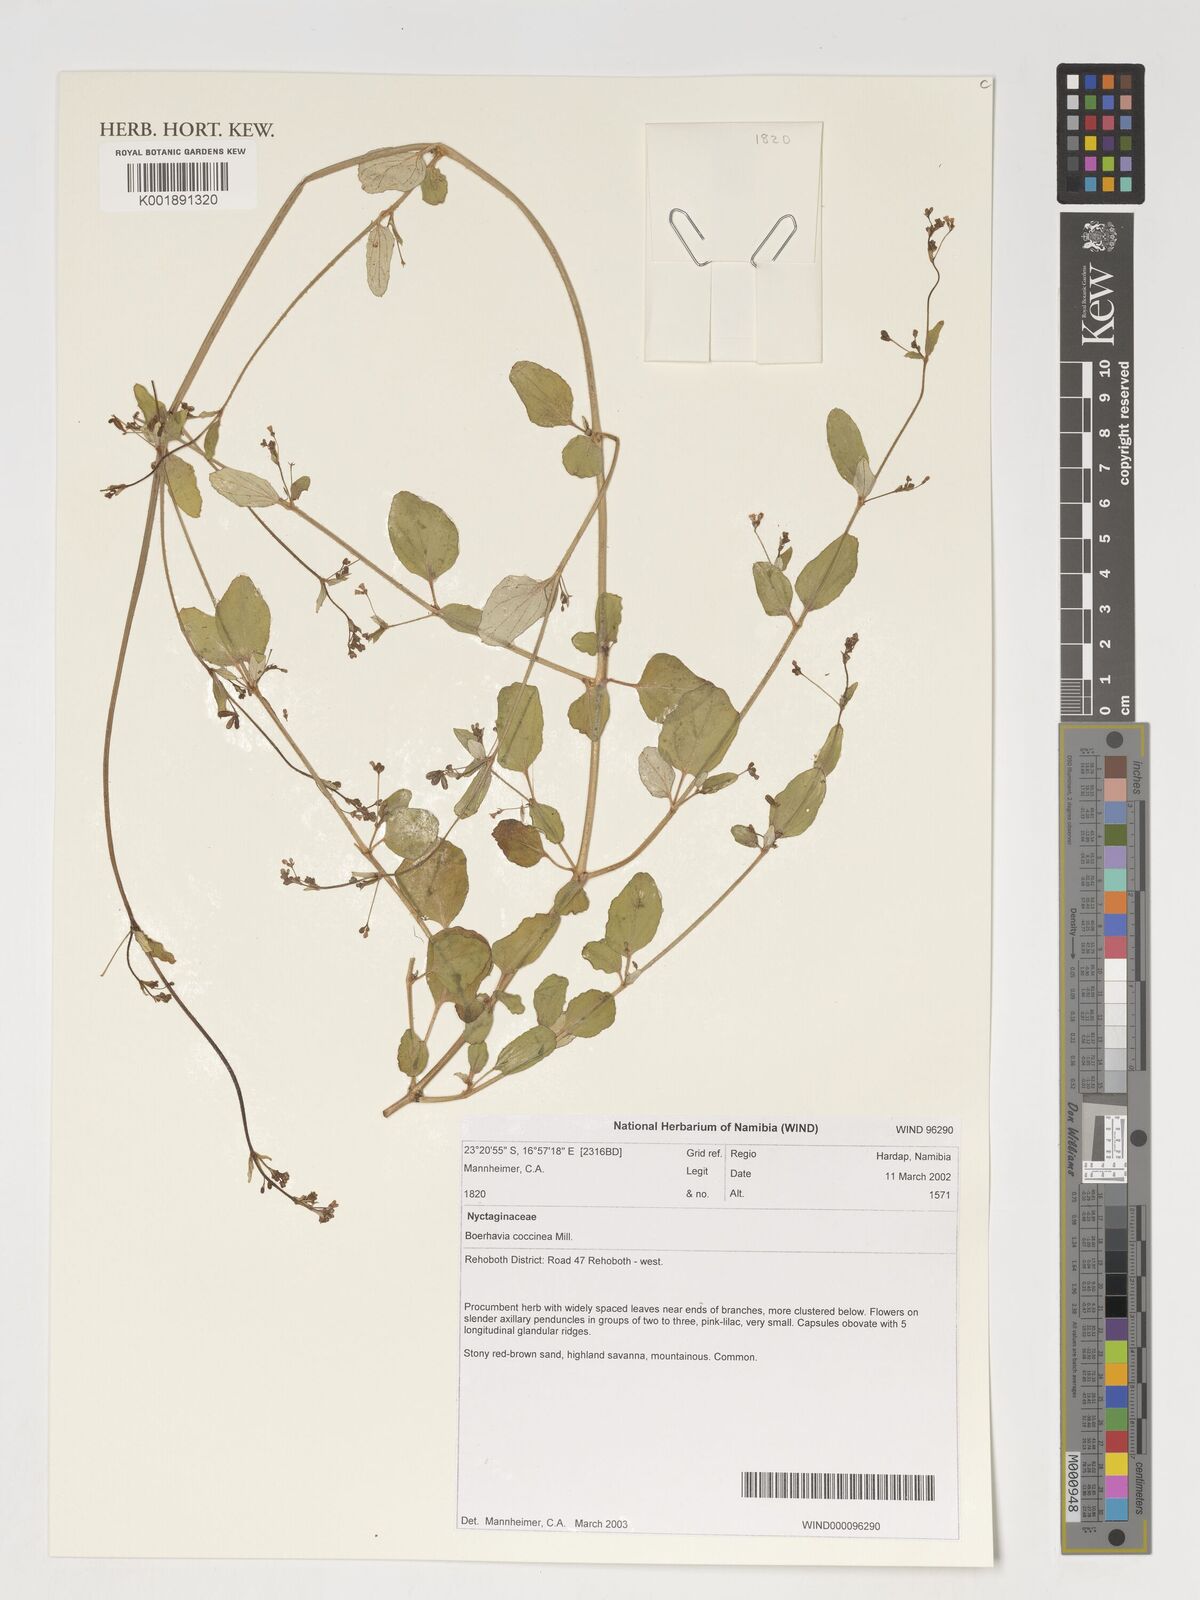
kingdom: Plantae
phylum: Tracheophyta
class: Magnoliopsida
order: Caryophyllales
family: Nyctaginaceae
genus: Boerhavia
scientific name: Boerhavia coccinea
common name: Scarlet spiderling
